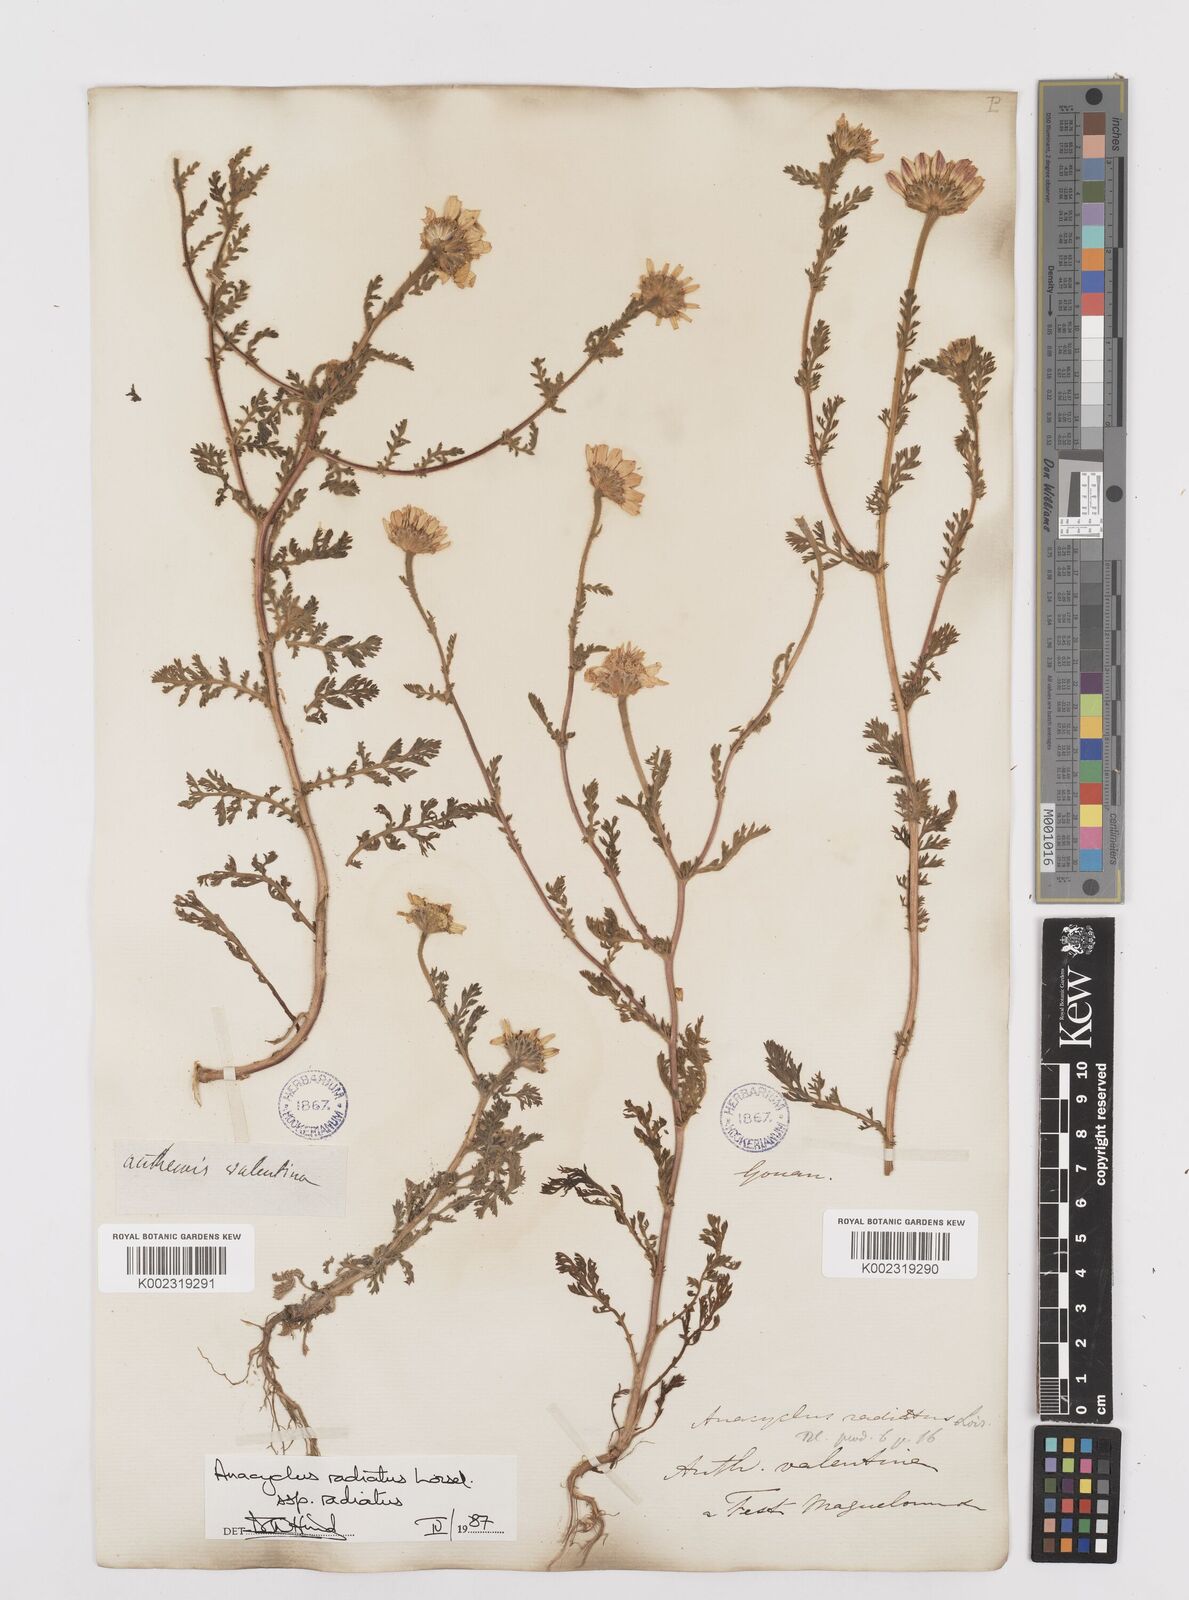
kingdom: Plantae
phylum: Tracheophyta
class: Magnoliopsida
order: Asterales
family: Asteraceae
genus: Anacyclus
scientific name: Anacyclus radiatus
